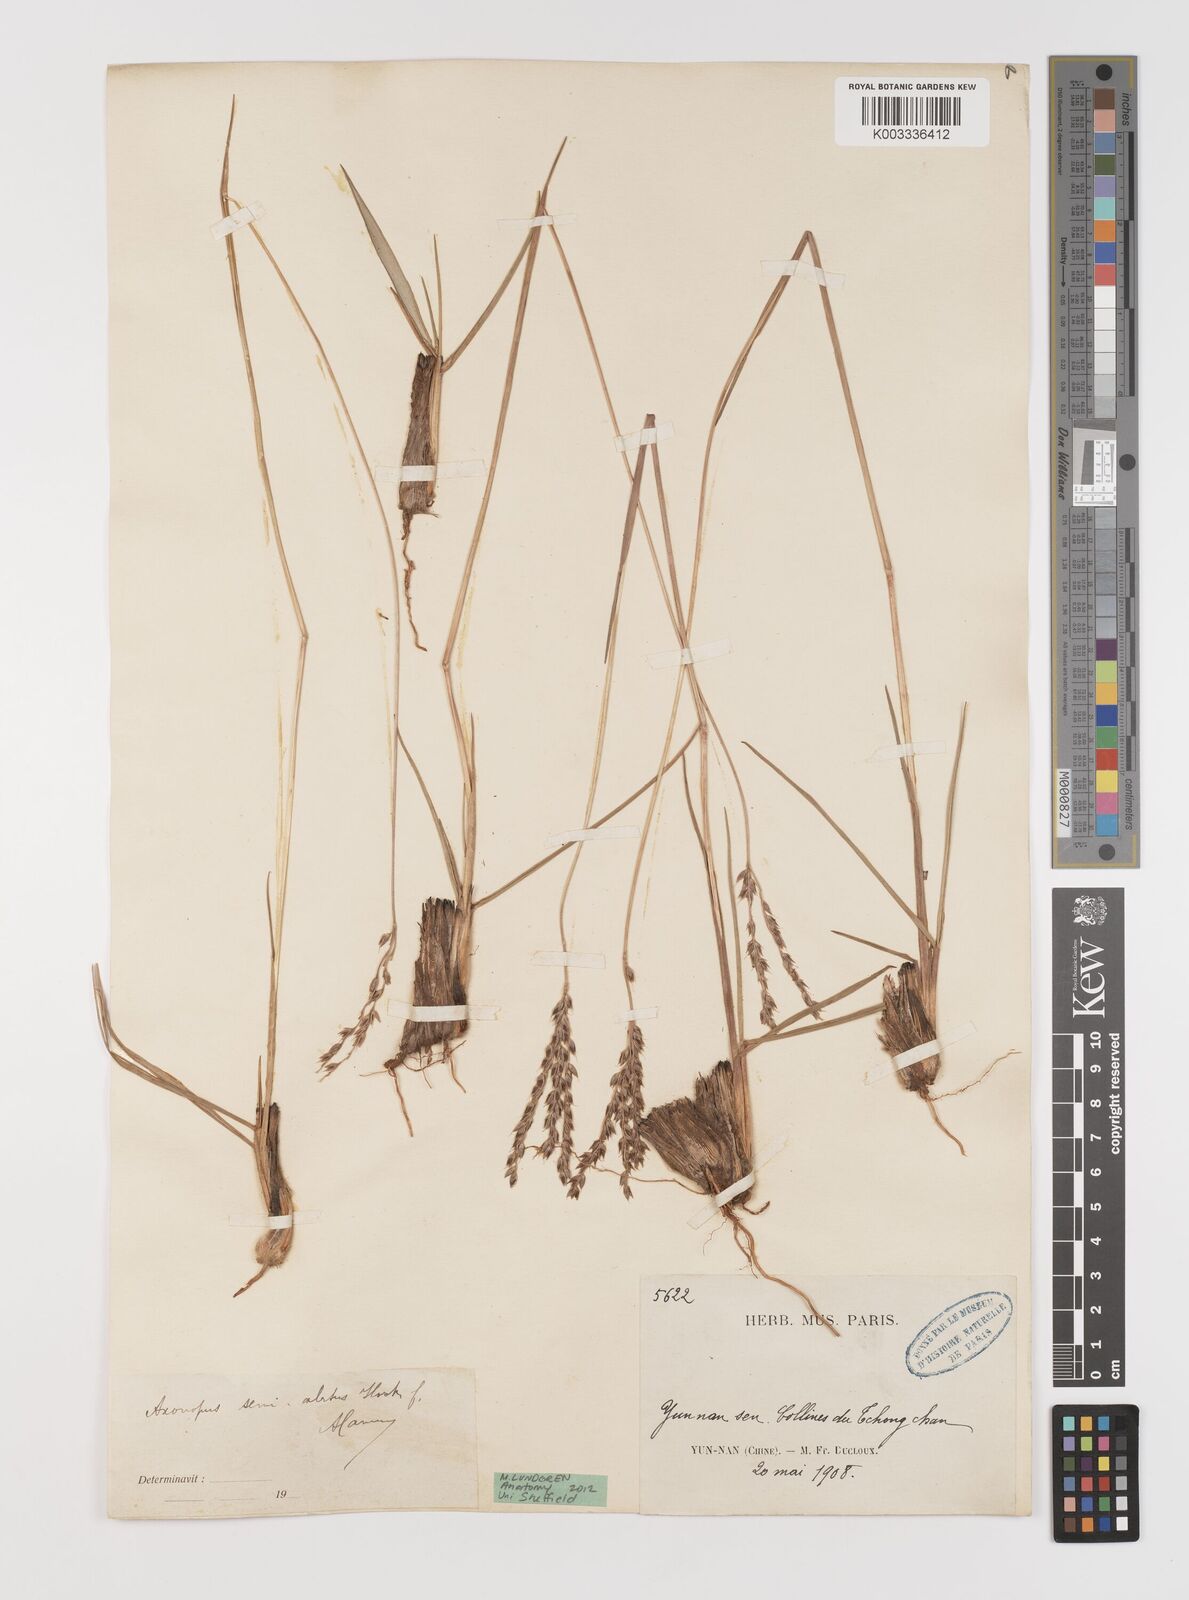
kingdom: Plantae
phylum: Tracheophyta
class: Liliopsida
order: Poales
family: Poaceae
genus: Alloteropsis
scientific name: Alloteropsis semialata
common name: Cockatoo grass
